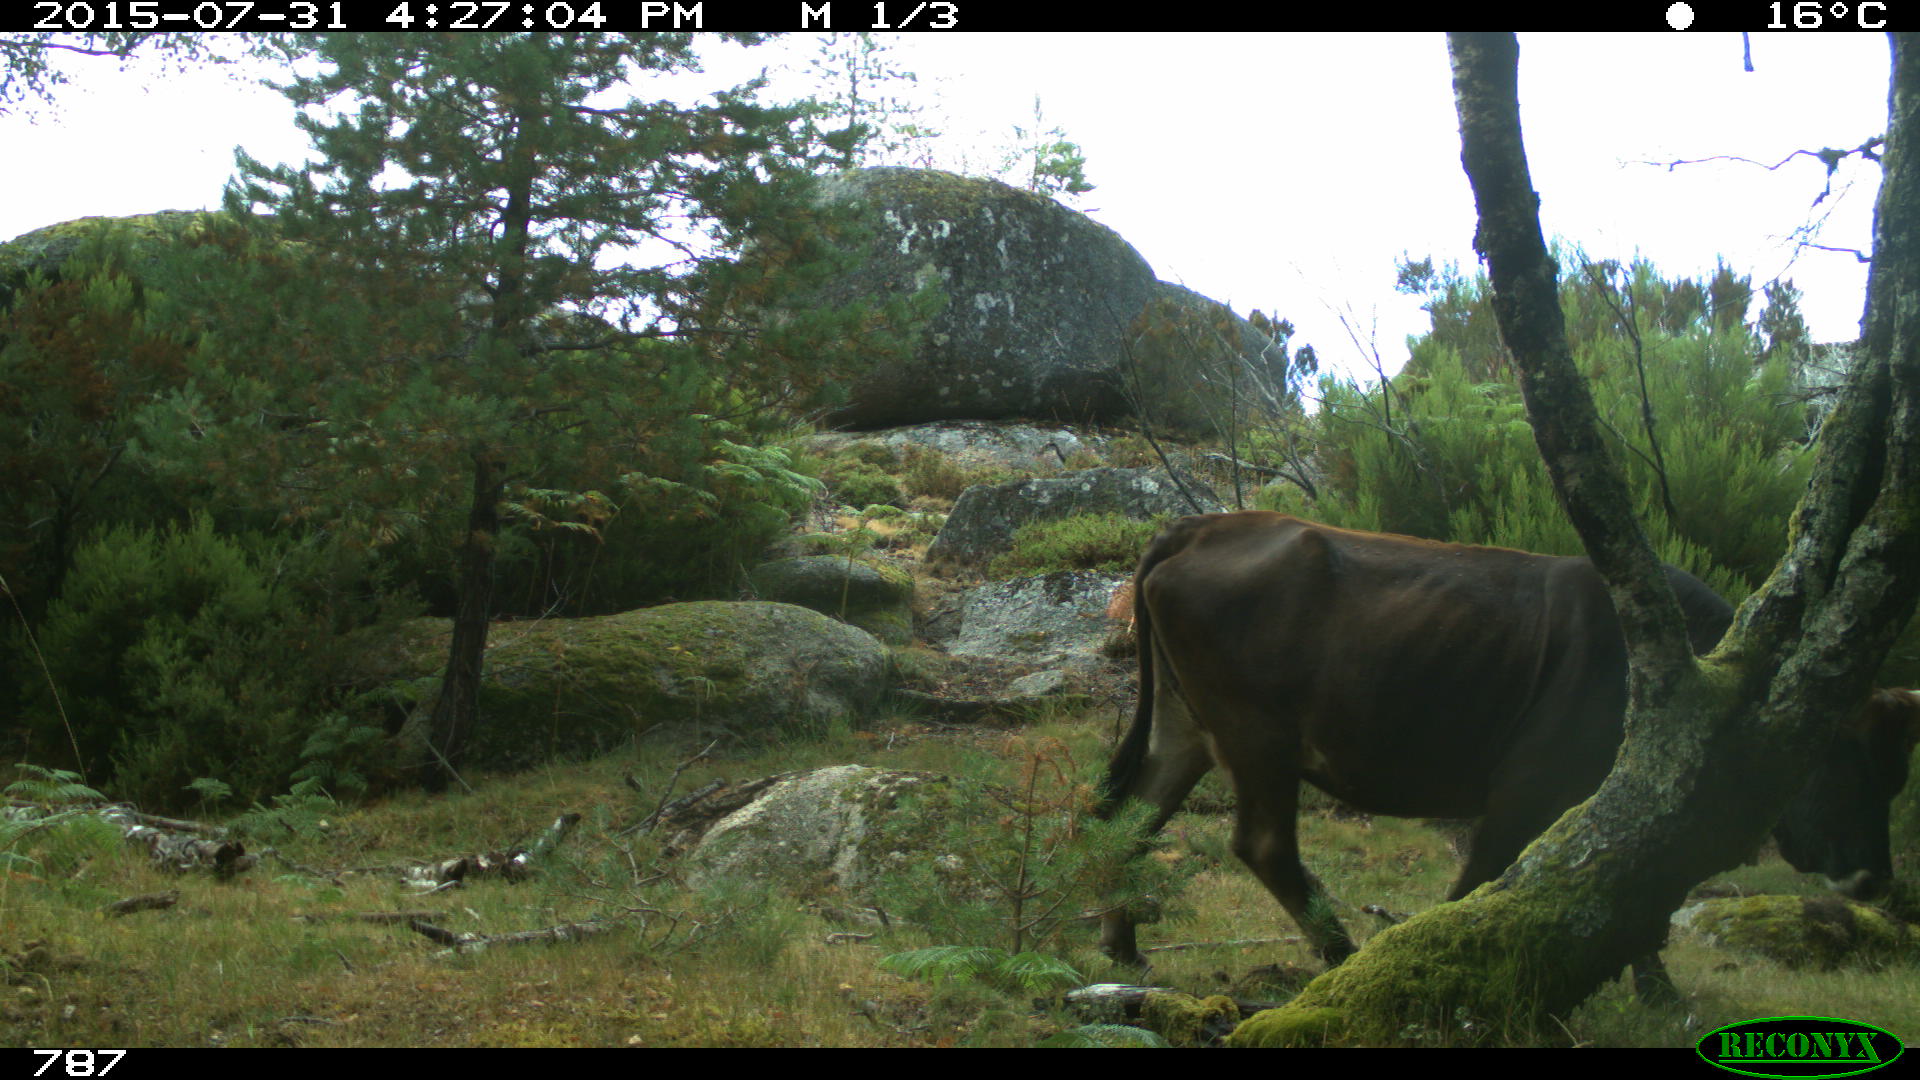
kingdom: Animalia
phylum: Chordata
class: Mammalia
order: Artiodactyla
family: Bovidae
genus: Bos
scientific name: Bos taurus
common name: Domesticated cattle
